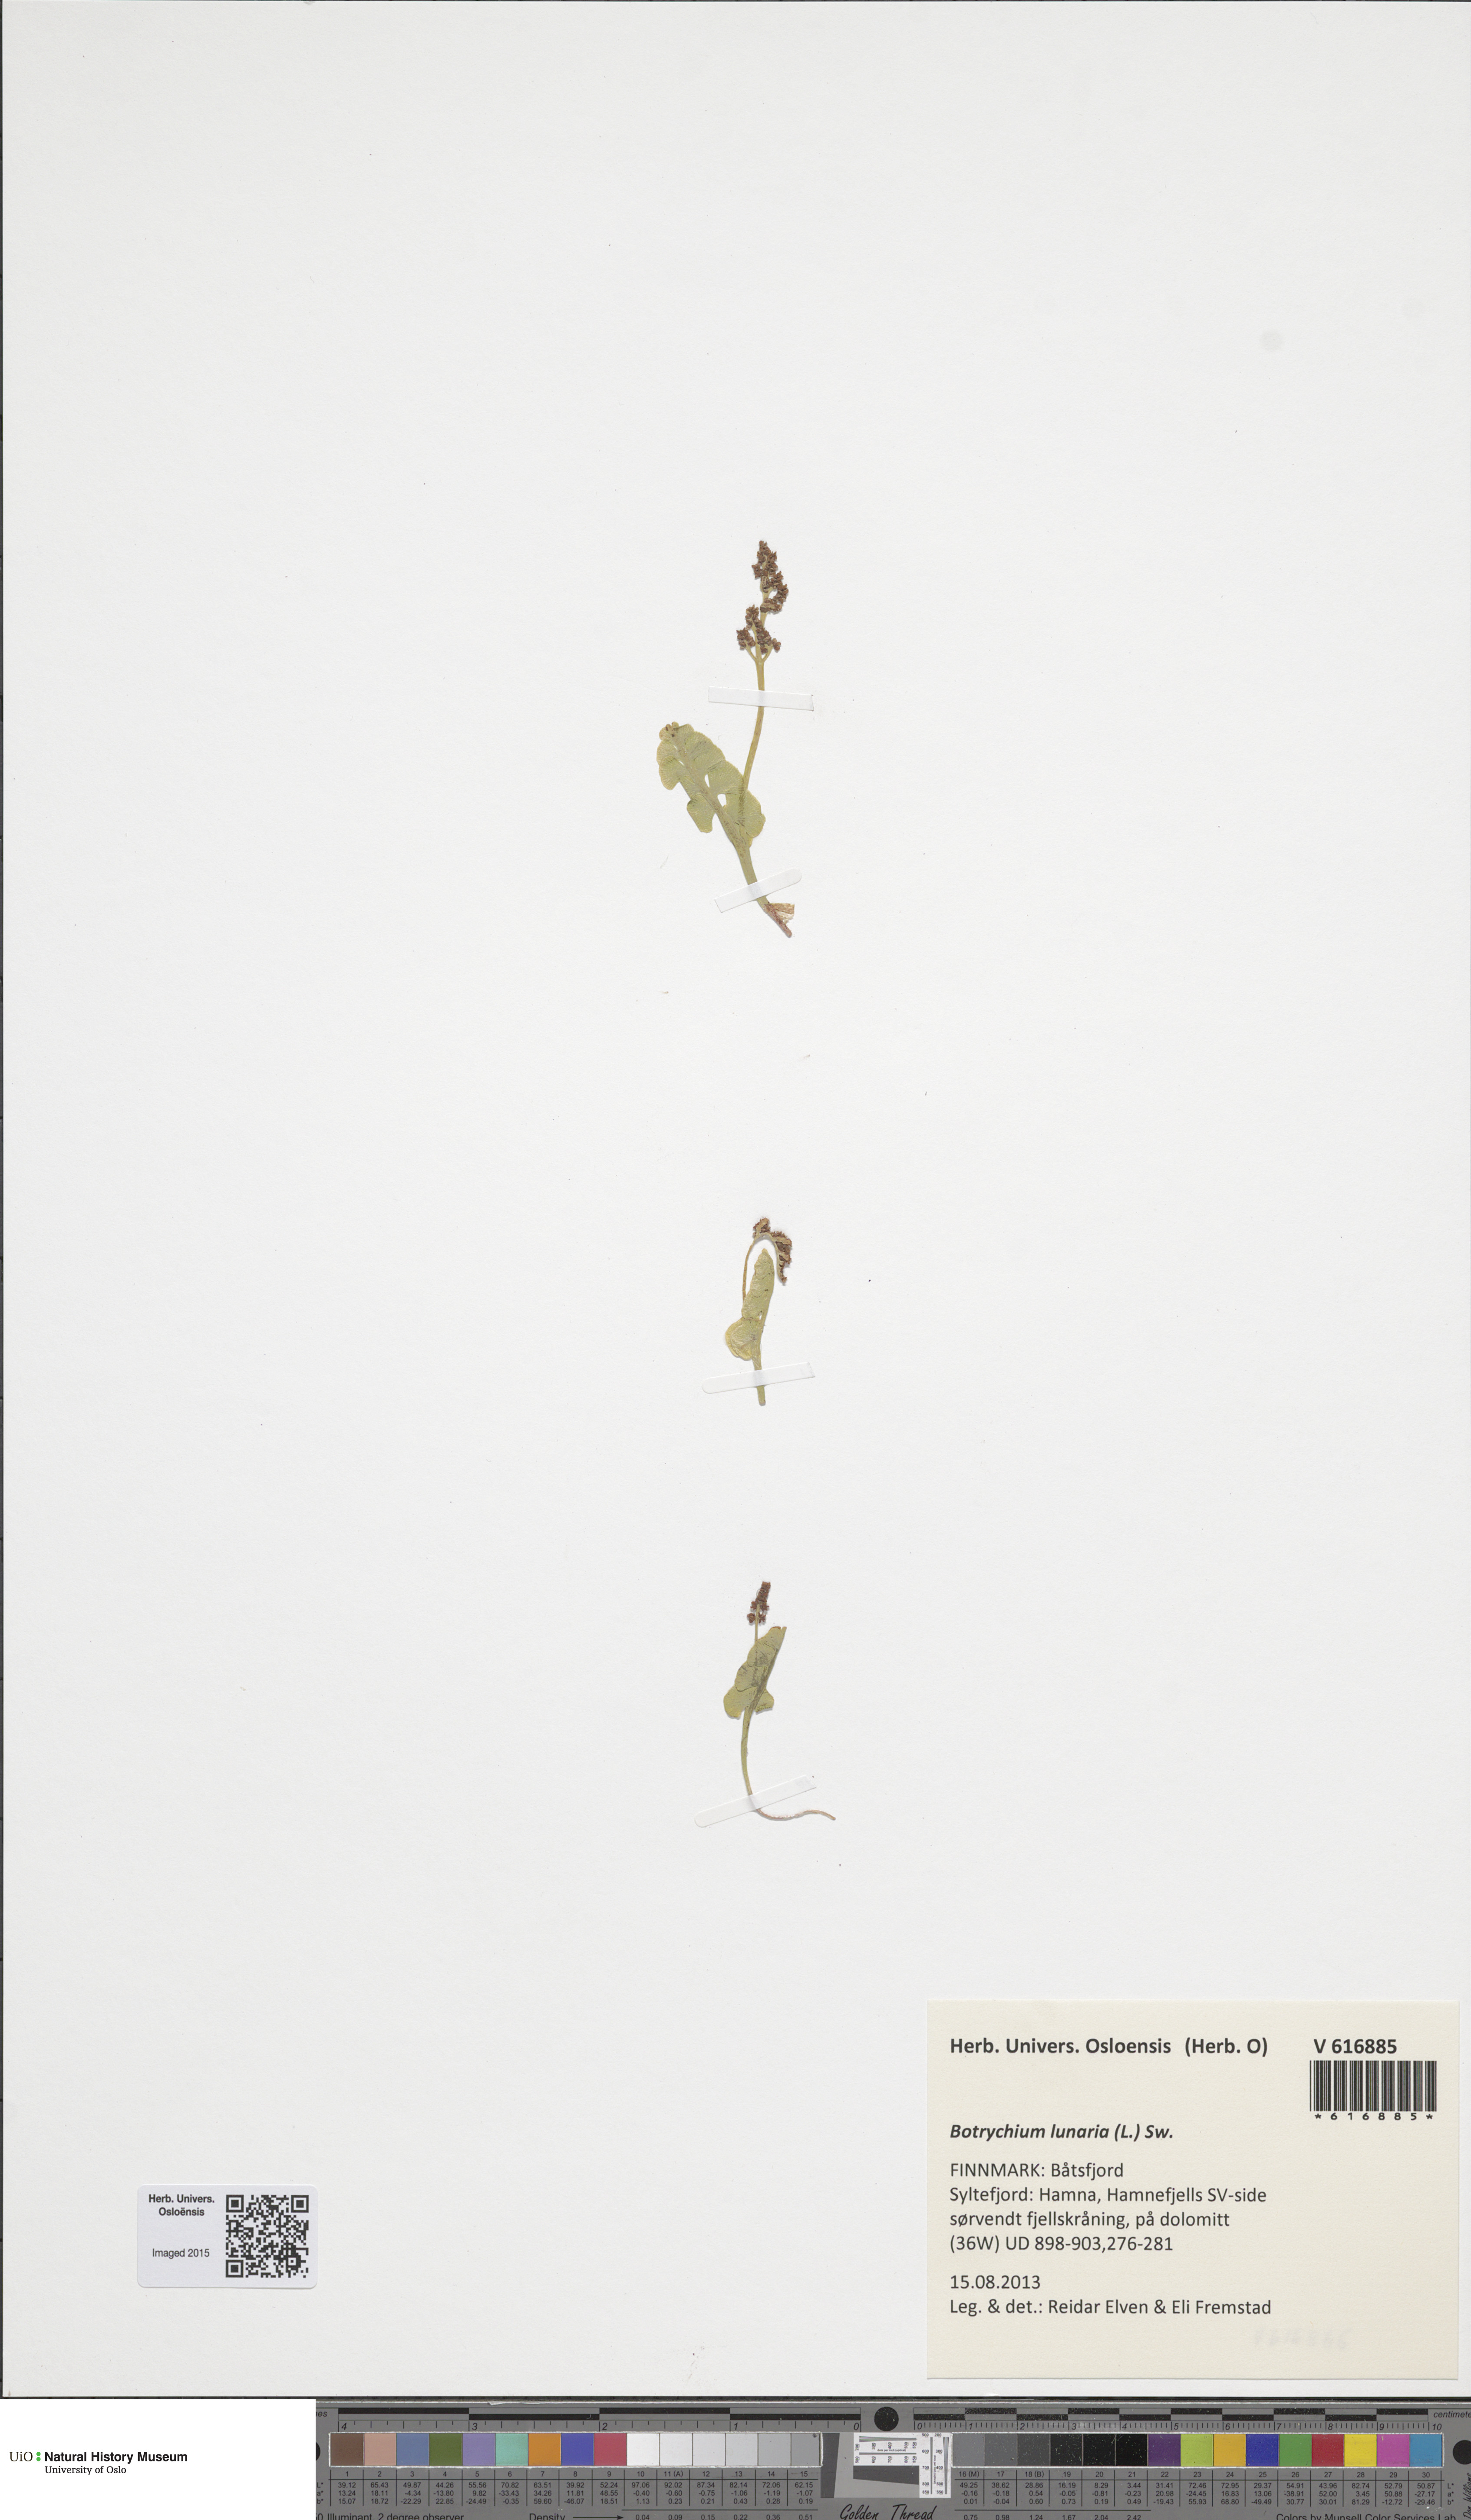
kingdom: Plantae
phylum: Tracheophyta
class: Polypodiopsida
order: Ophioglossales
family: Ophioglossaceae
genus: Botrychium
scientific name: Botrychium lunaria
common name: Moonwort
